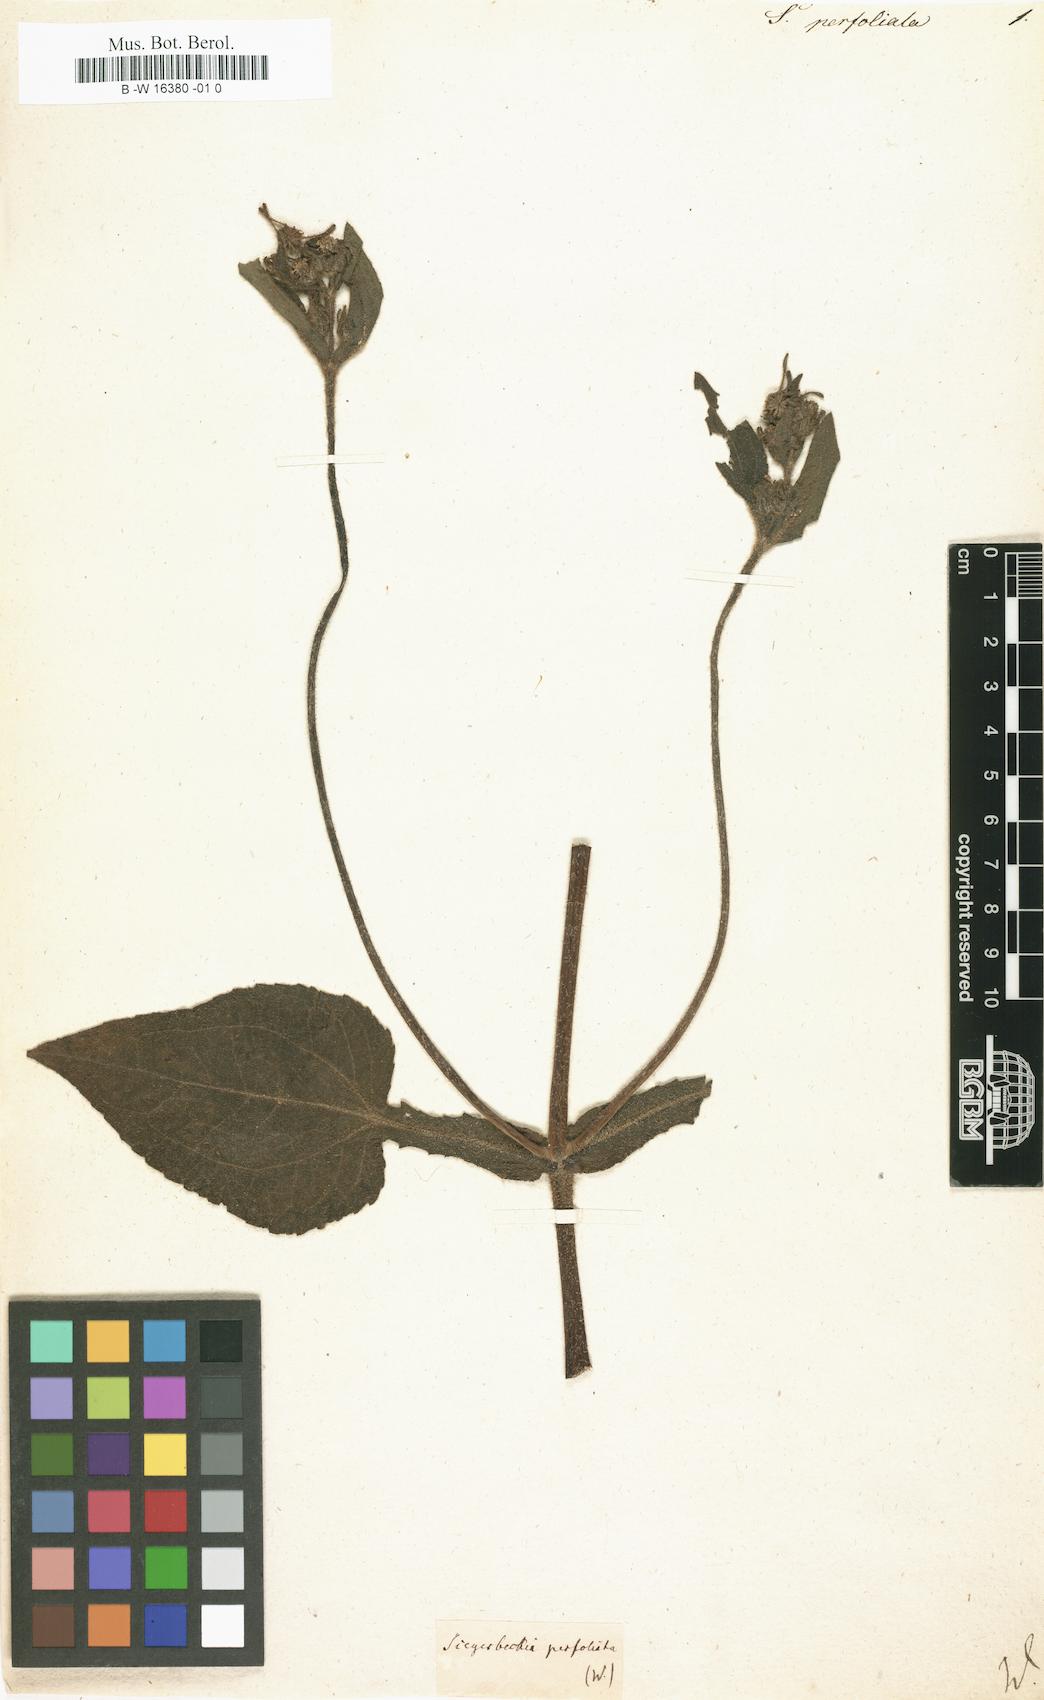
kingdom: Plantae
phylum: Tracheophyta
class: Magnoliopsida
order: Asterales
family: Asteraceae
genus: Siegesbeckia
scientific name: Siegesbeckia
